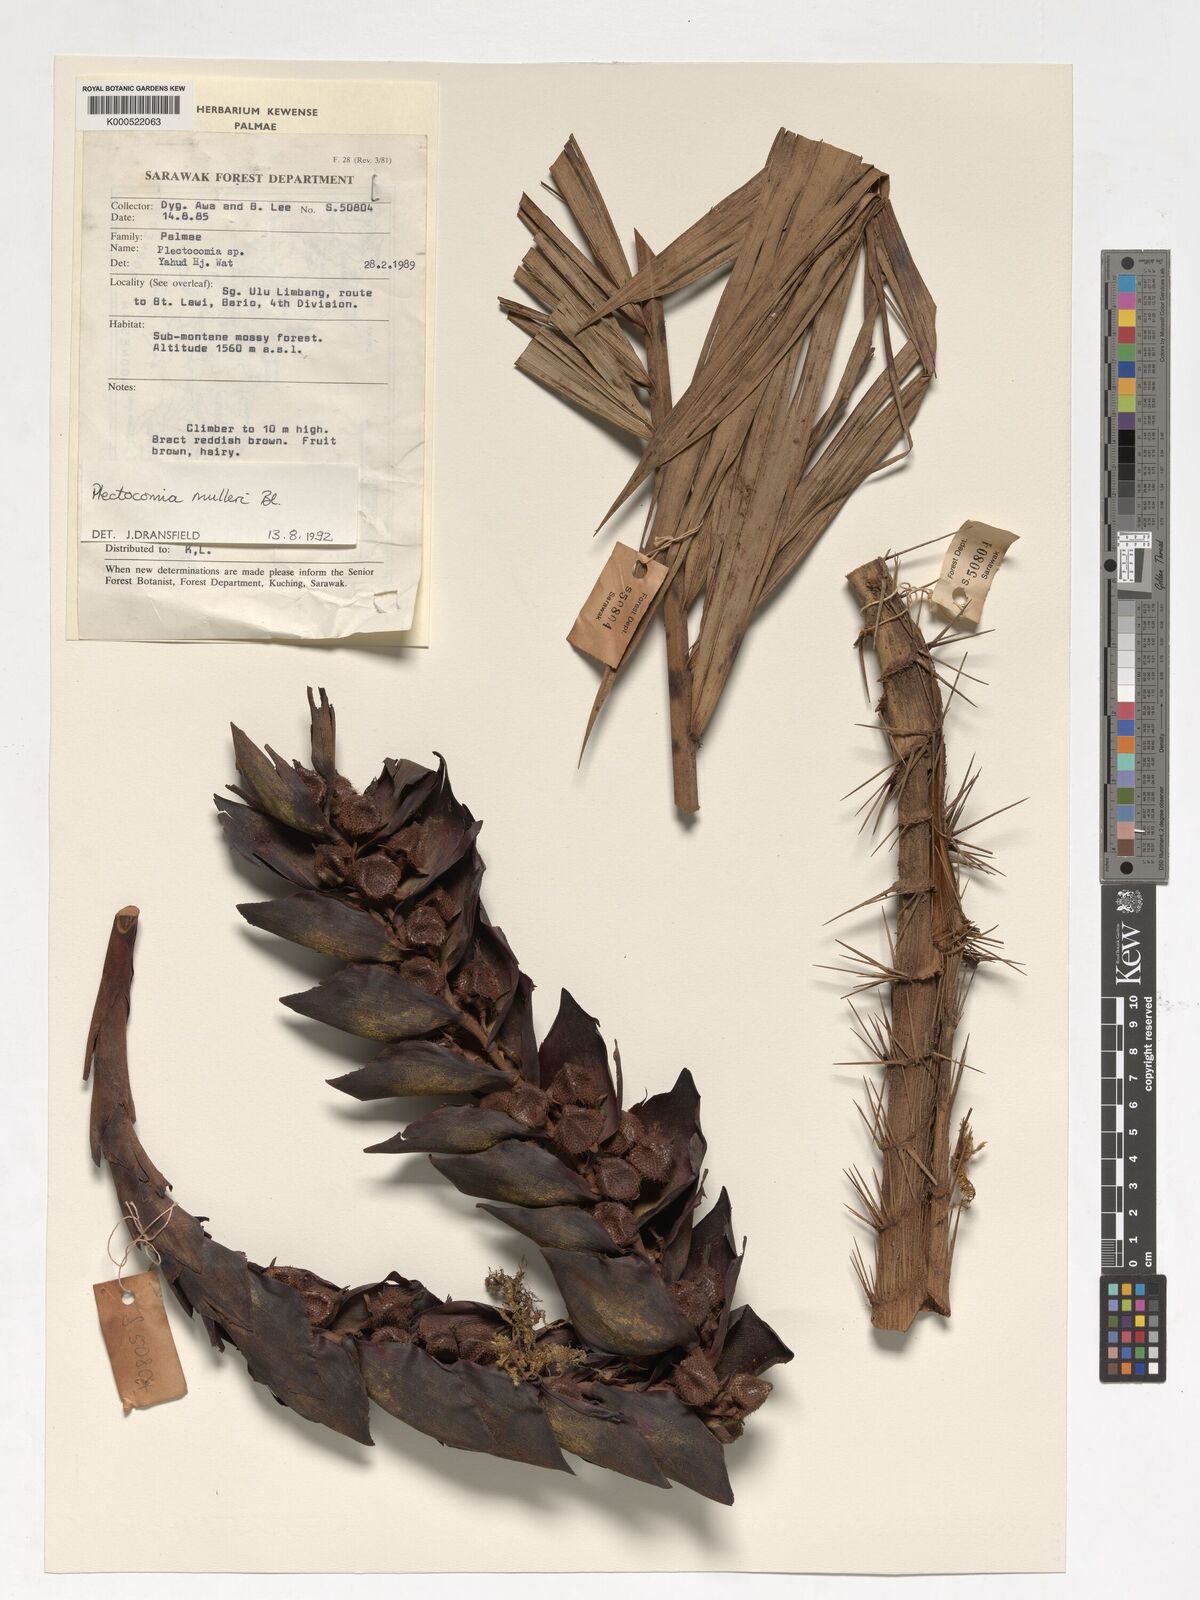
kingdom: Plantae
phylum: Tracheophyta
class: Liliopsida
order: Arecales
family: Arecaceae
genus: Plectocomia
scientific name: Plectocomia mulleri
